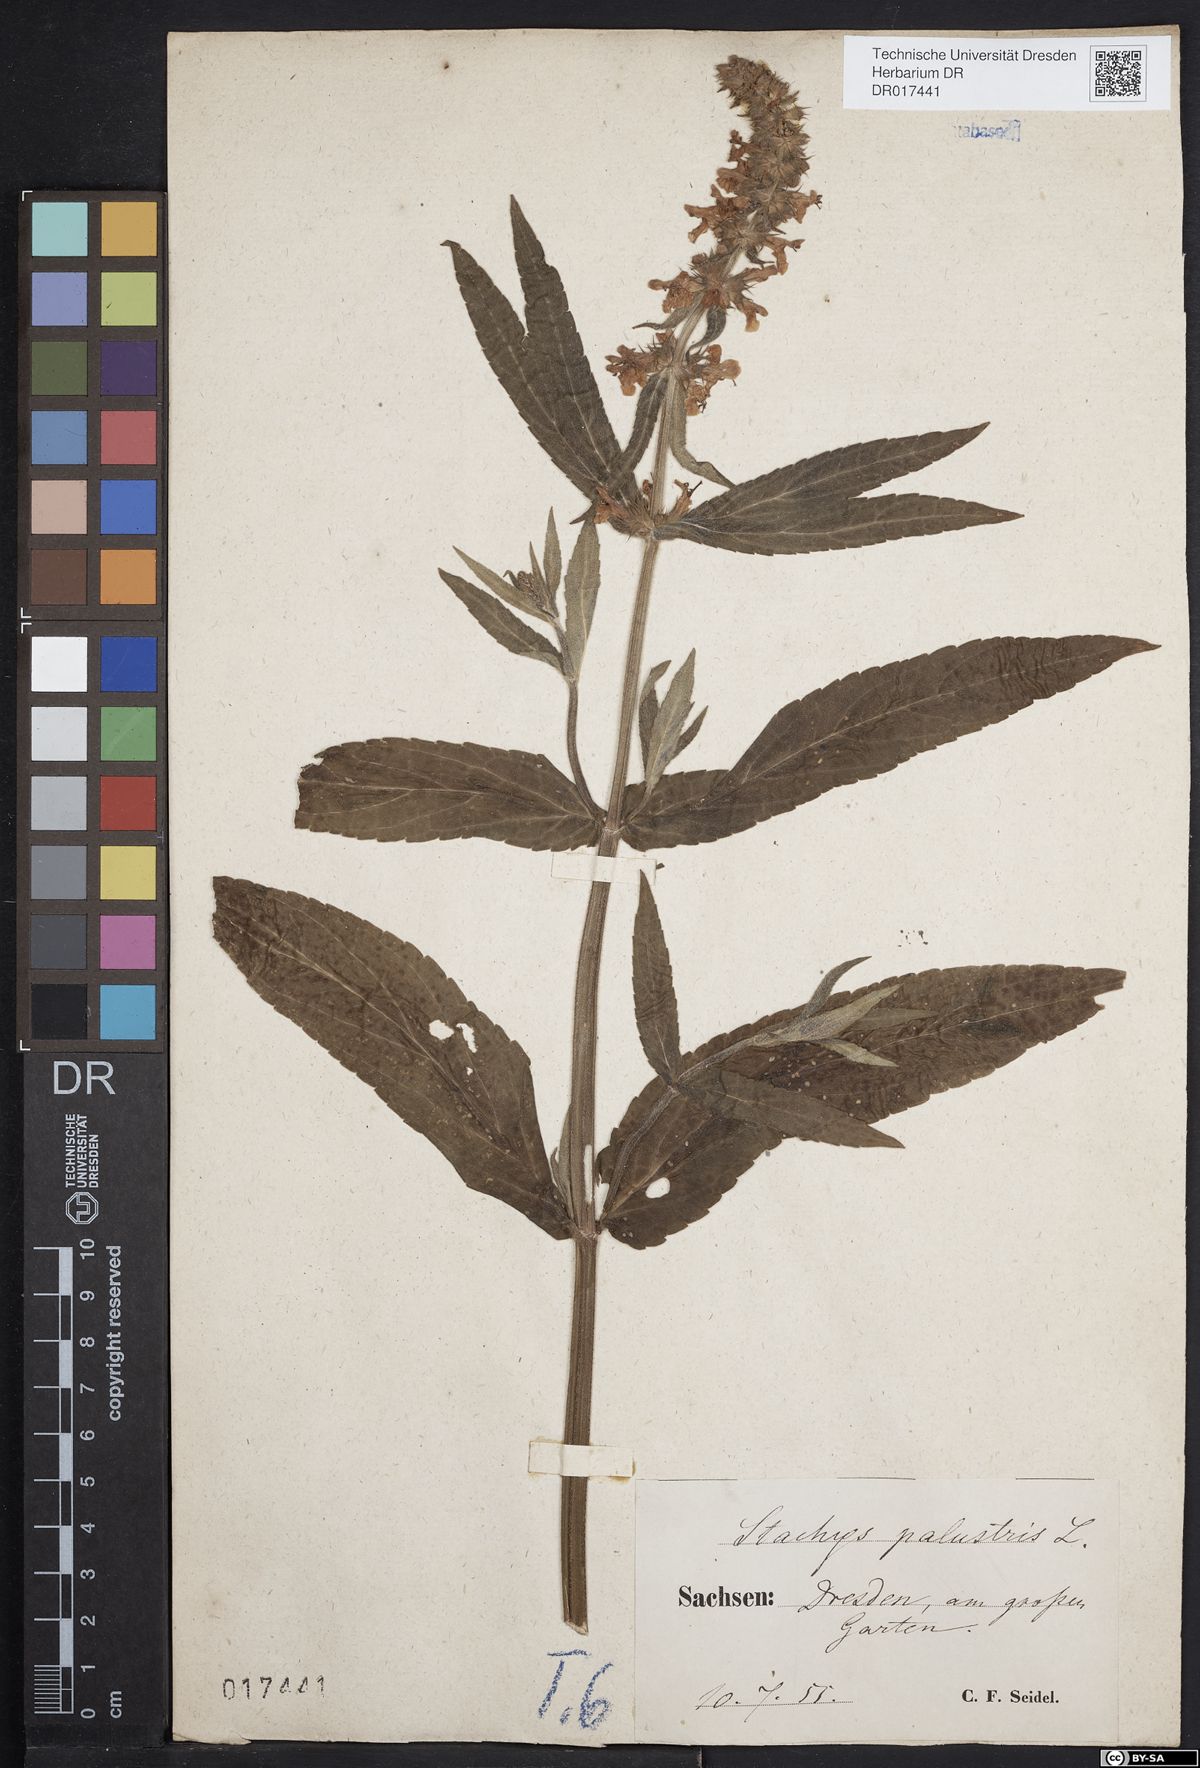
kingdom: Plantae
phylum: Tracheophyta
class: Magnoliopsida
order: Lamiales
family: Lamiaceae
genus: Stachys
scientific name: Stachys palustris
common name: Marsh woundwort
